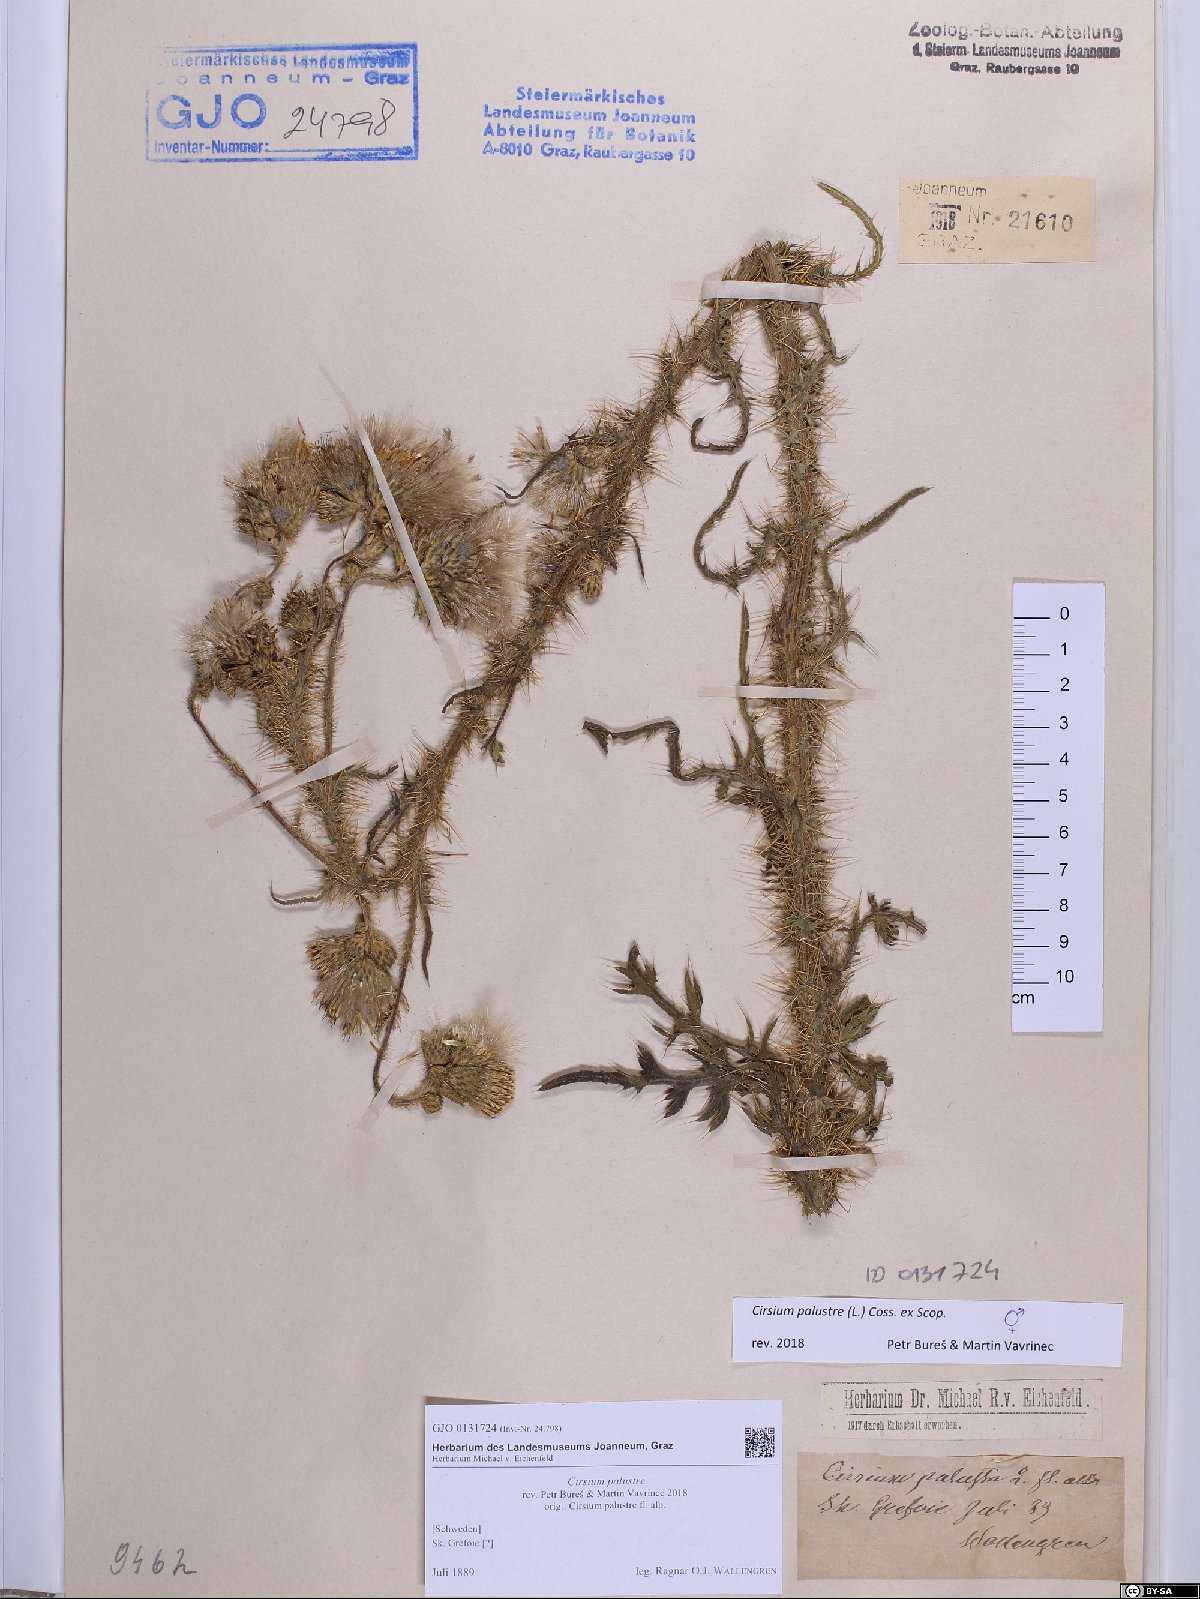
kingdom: Plantae
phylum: Tracheophyta
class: Magnoliopsida
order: Asterales
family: Asteraceae
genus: Cirsium
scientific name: Cirsium palustre
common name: Marsh thistle
